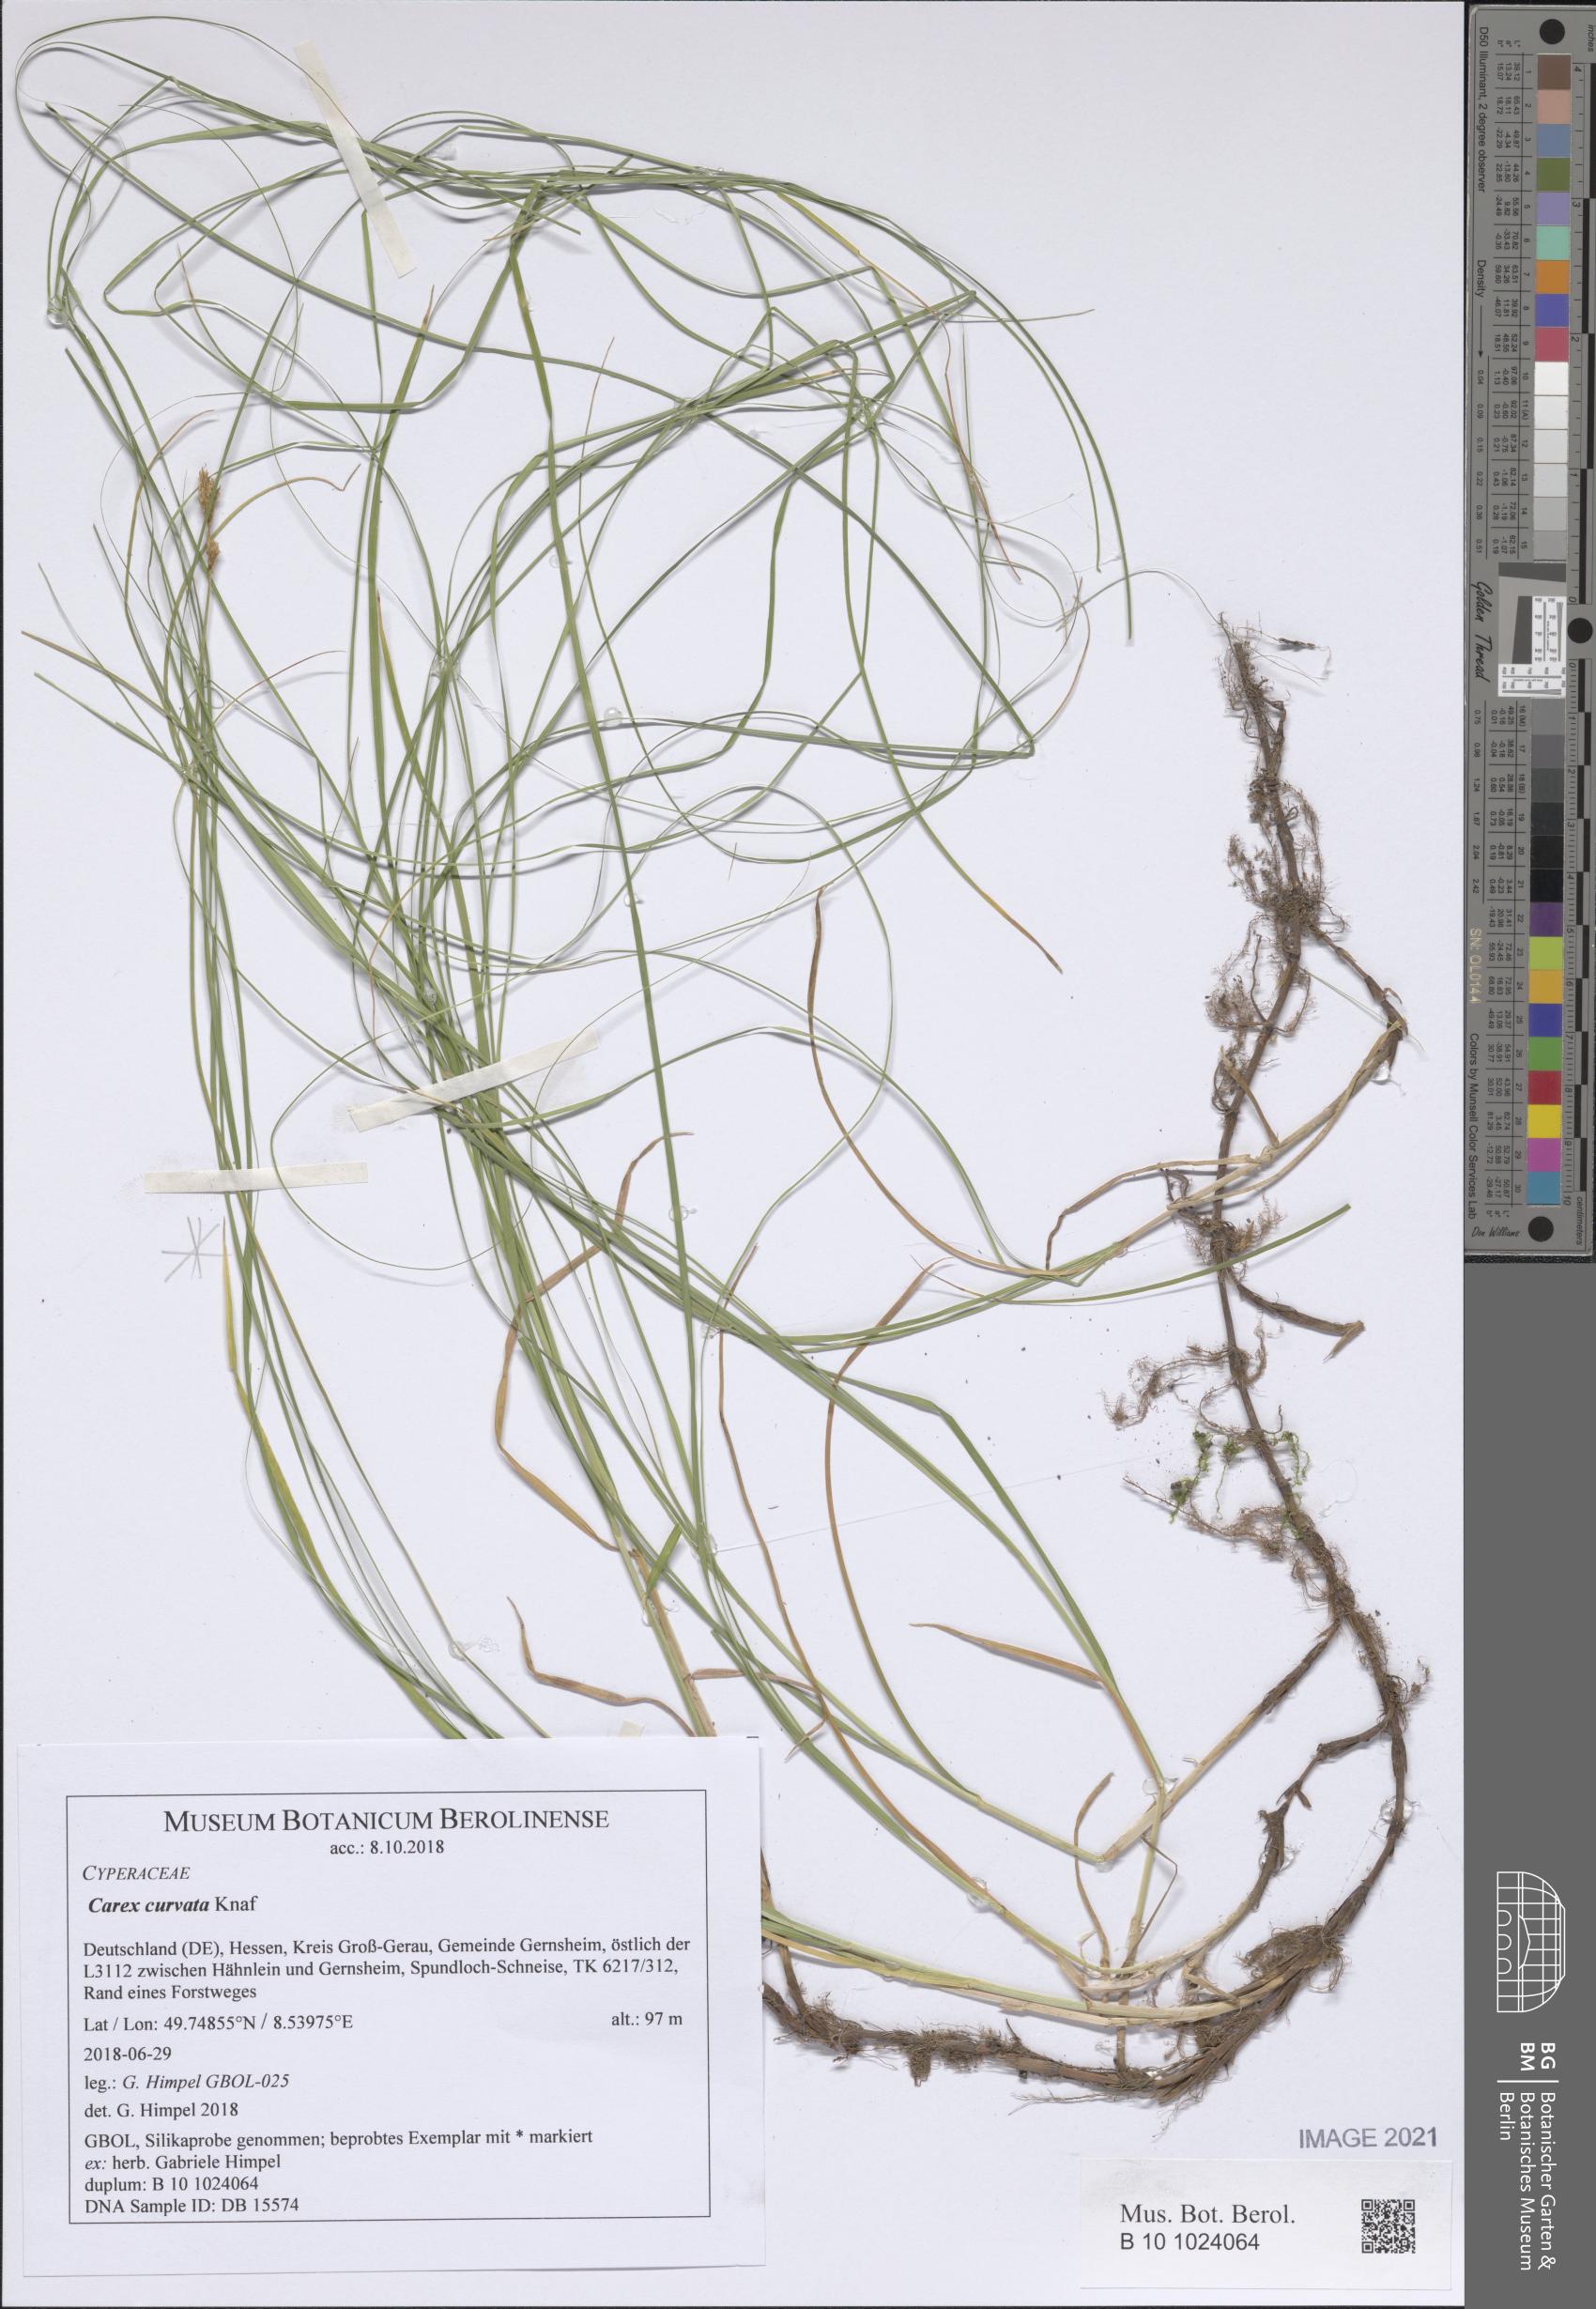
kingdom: Plantae
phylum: Tracheophyta
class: Liliopsida
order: Poales
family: Cyperaceae
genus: Carex
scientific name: Carex curvata
